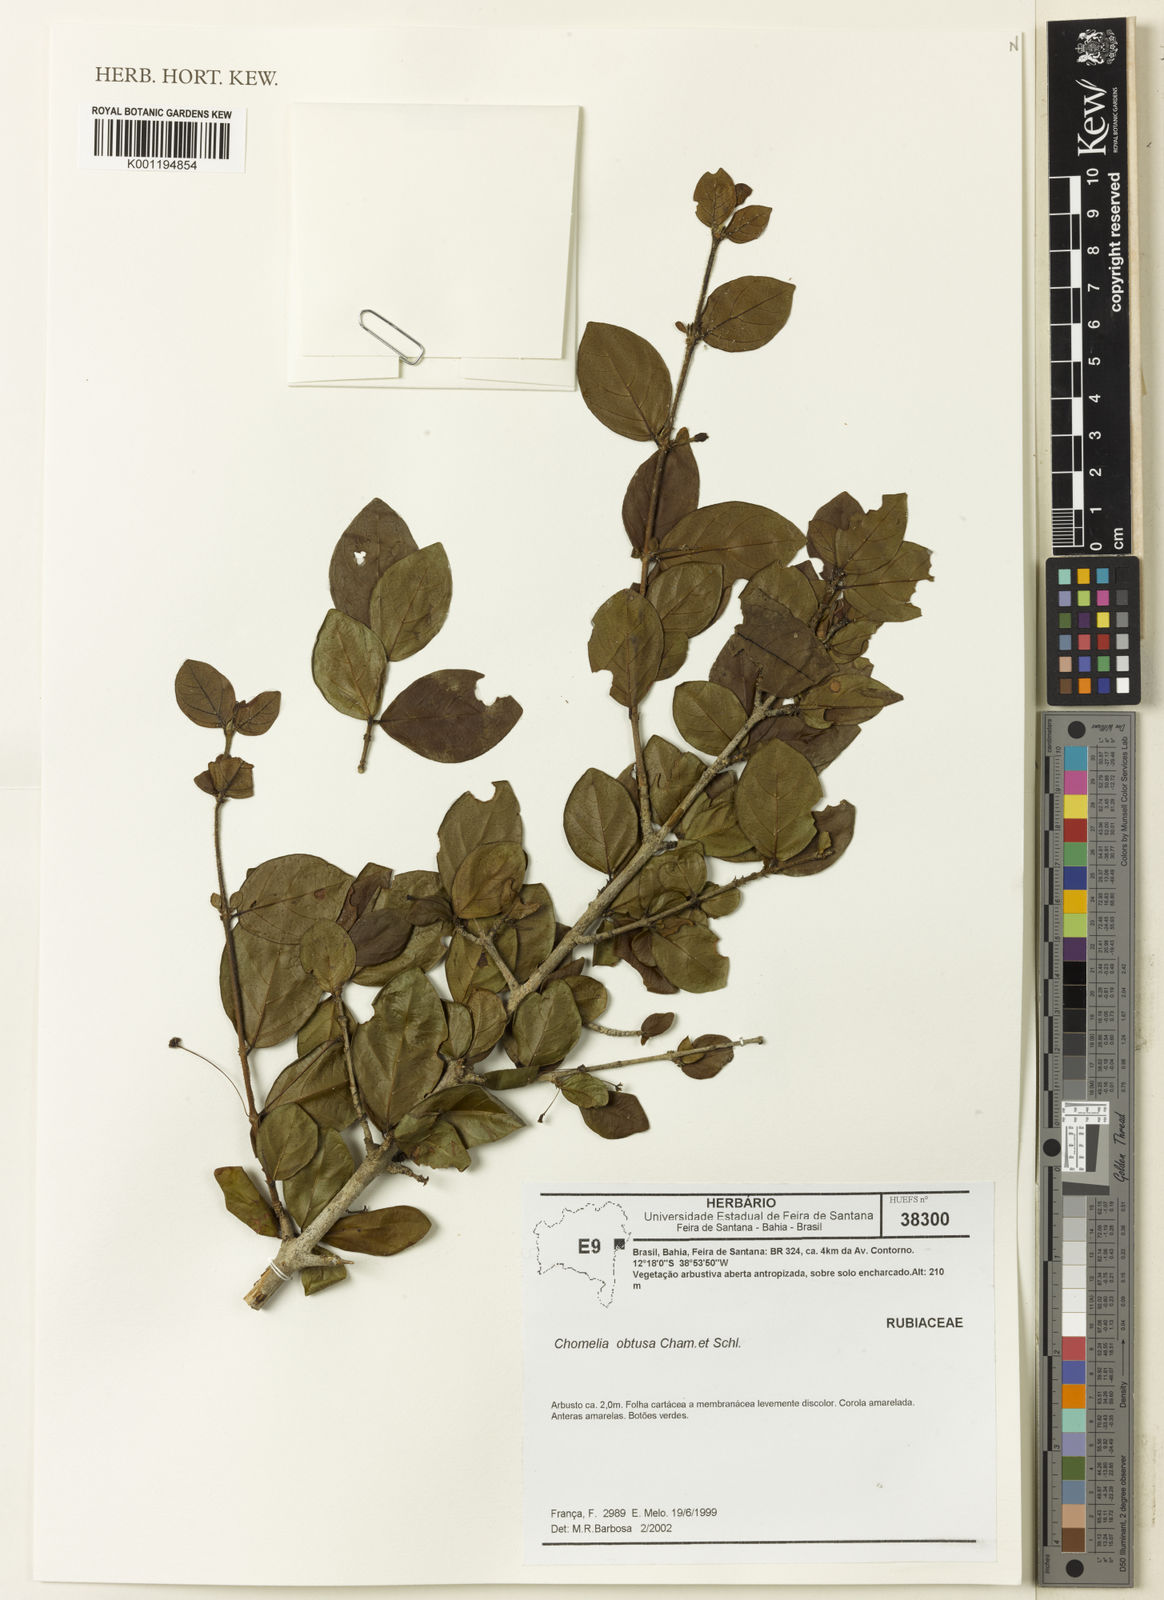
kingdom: Plantae
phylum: Tracheophyta
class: Magnoliopsida
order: Gentianales
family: Rubiaceae
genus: Chomelia
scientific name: Chomelia obtusa
